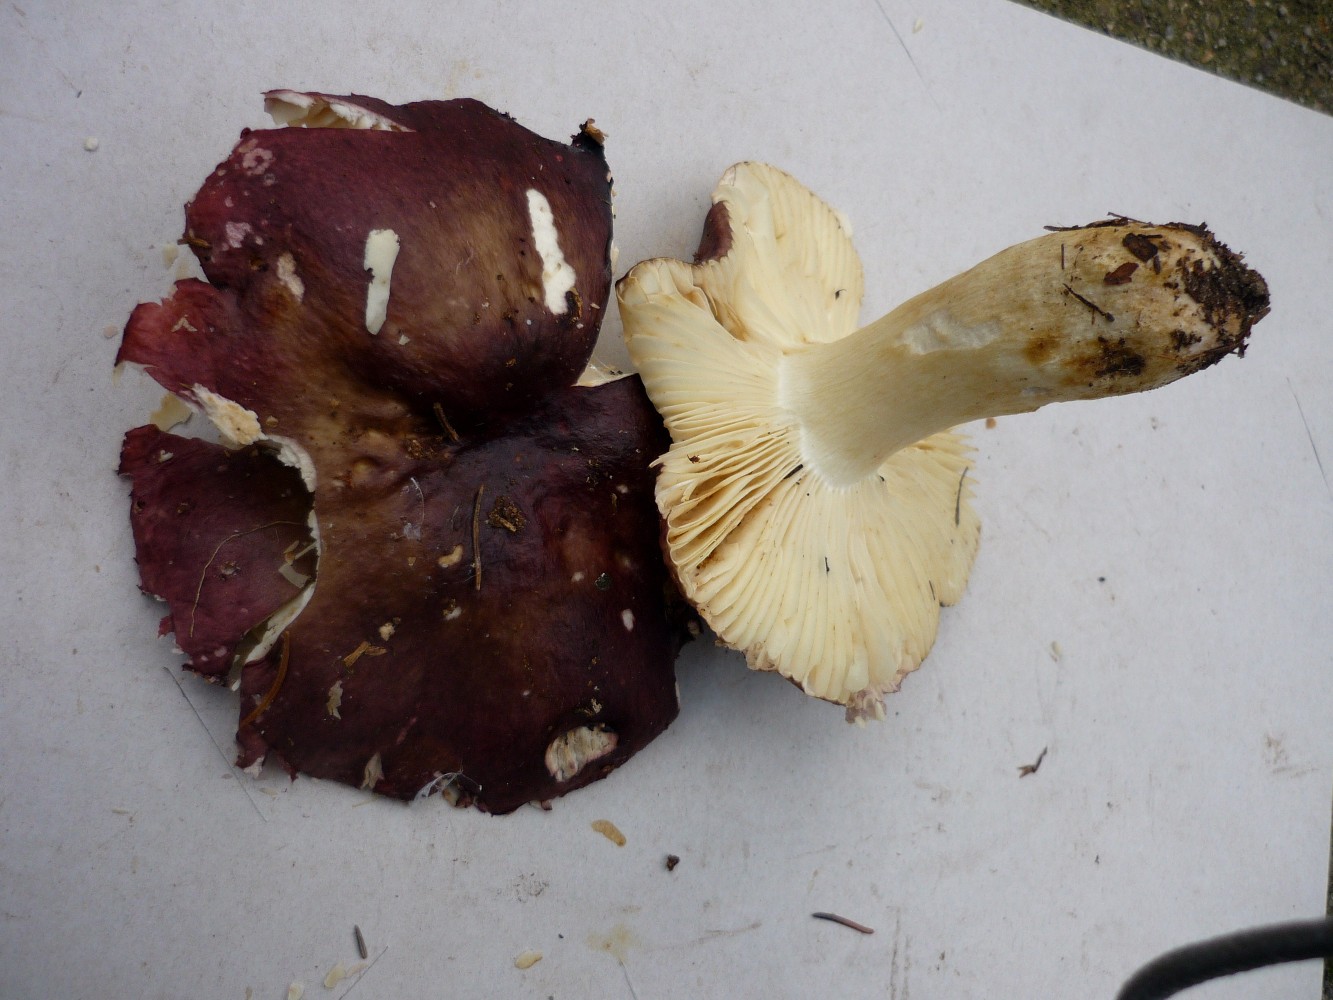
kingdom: Fungi
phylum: Basidiomycota
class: Agaricomycetes
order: Russulales
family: Russulaceae
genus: Russula
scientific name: Russula viscida
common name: knippe-skørhat
